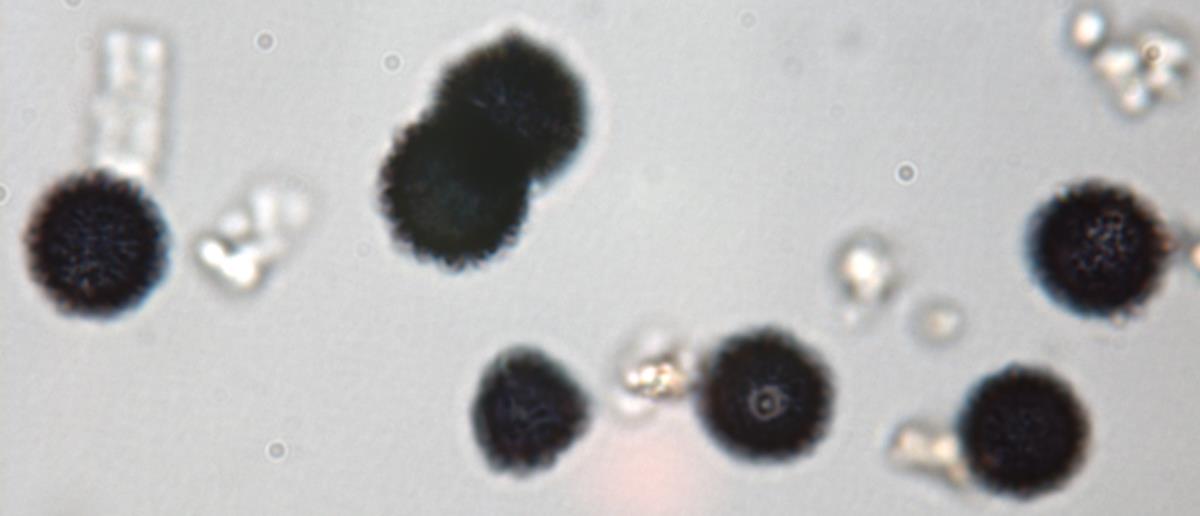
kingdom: Fungi
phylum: Basidiomycota
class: Agaricomycetes
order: Russulales
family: Russulaceae
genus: Russula
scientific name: Russula seminuda
